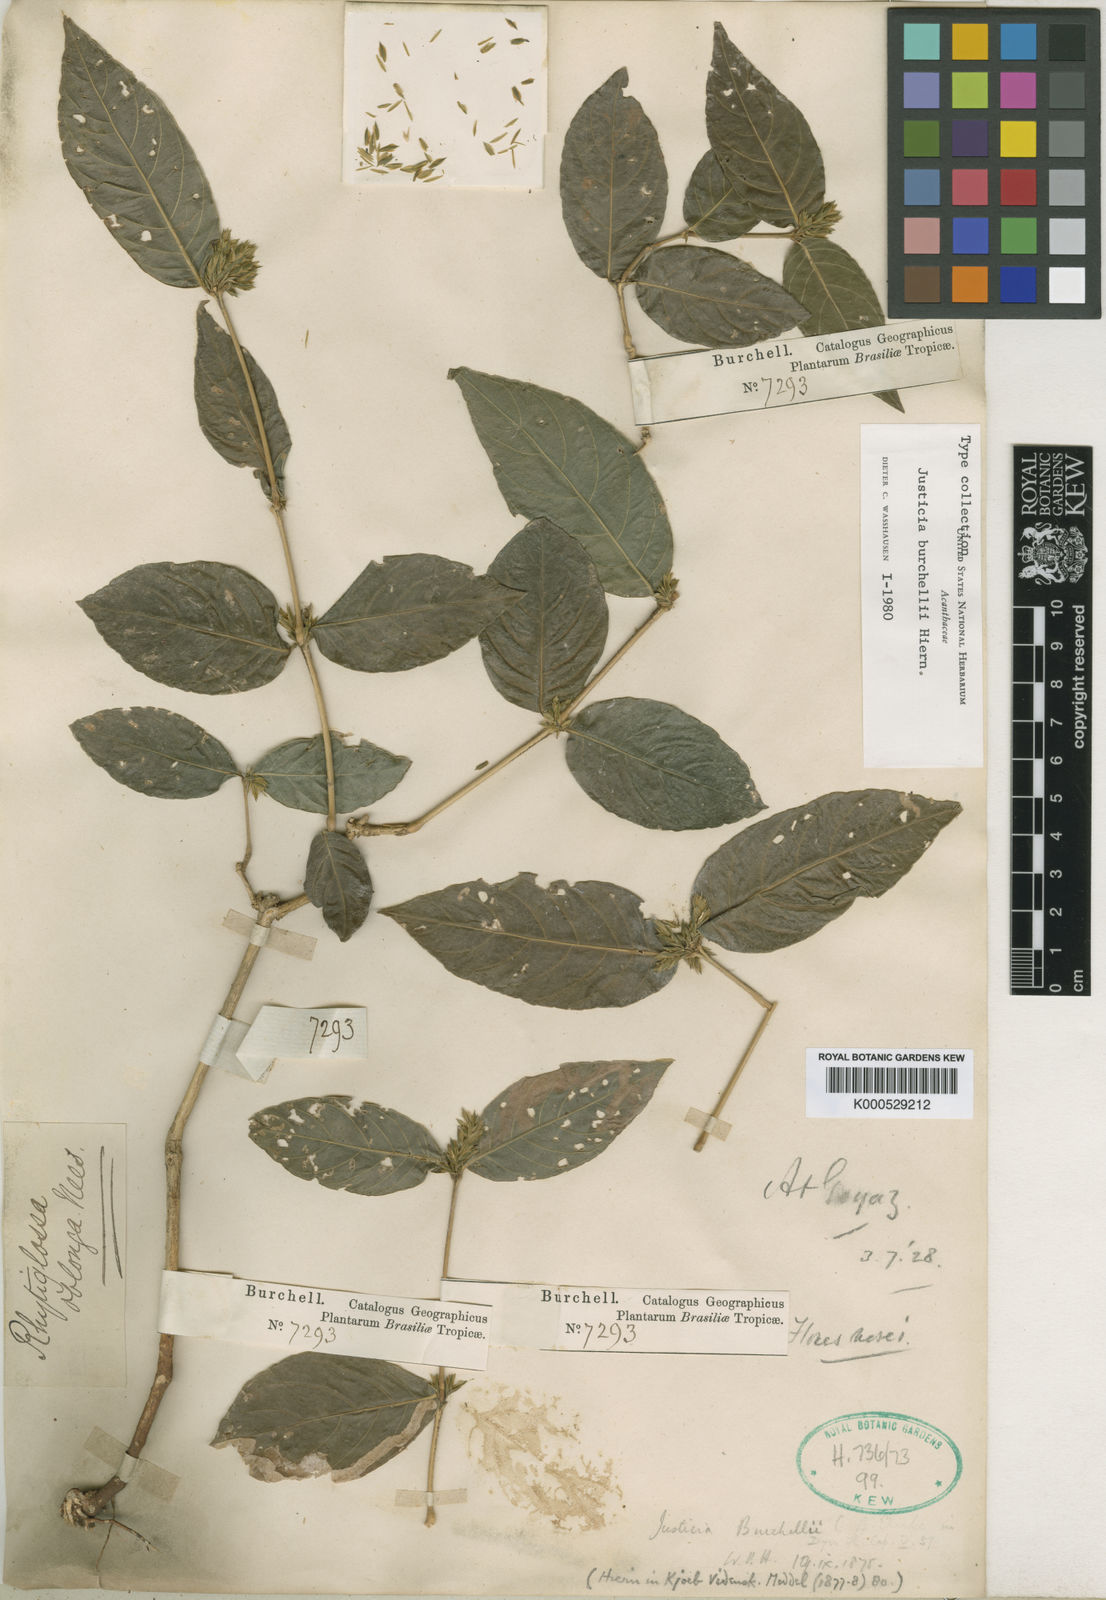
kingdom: Plantae
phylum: Tracheophyta
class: Magnoliopsida
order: Lamiales
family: Acanthaceae
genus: Justicia
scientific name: Justicia burchellii
